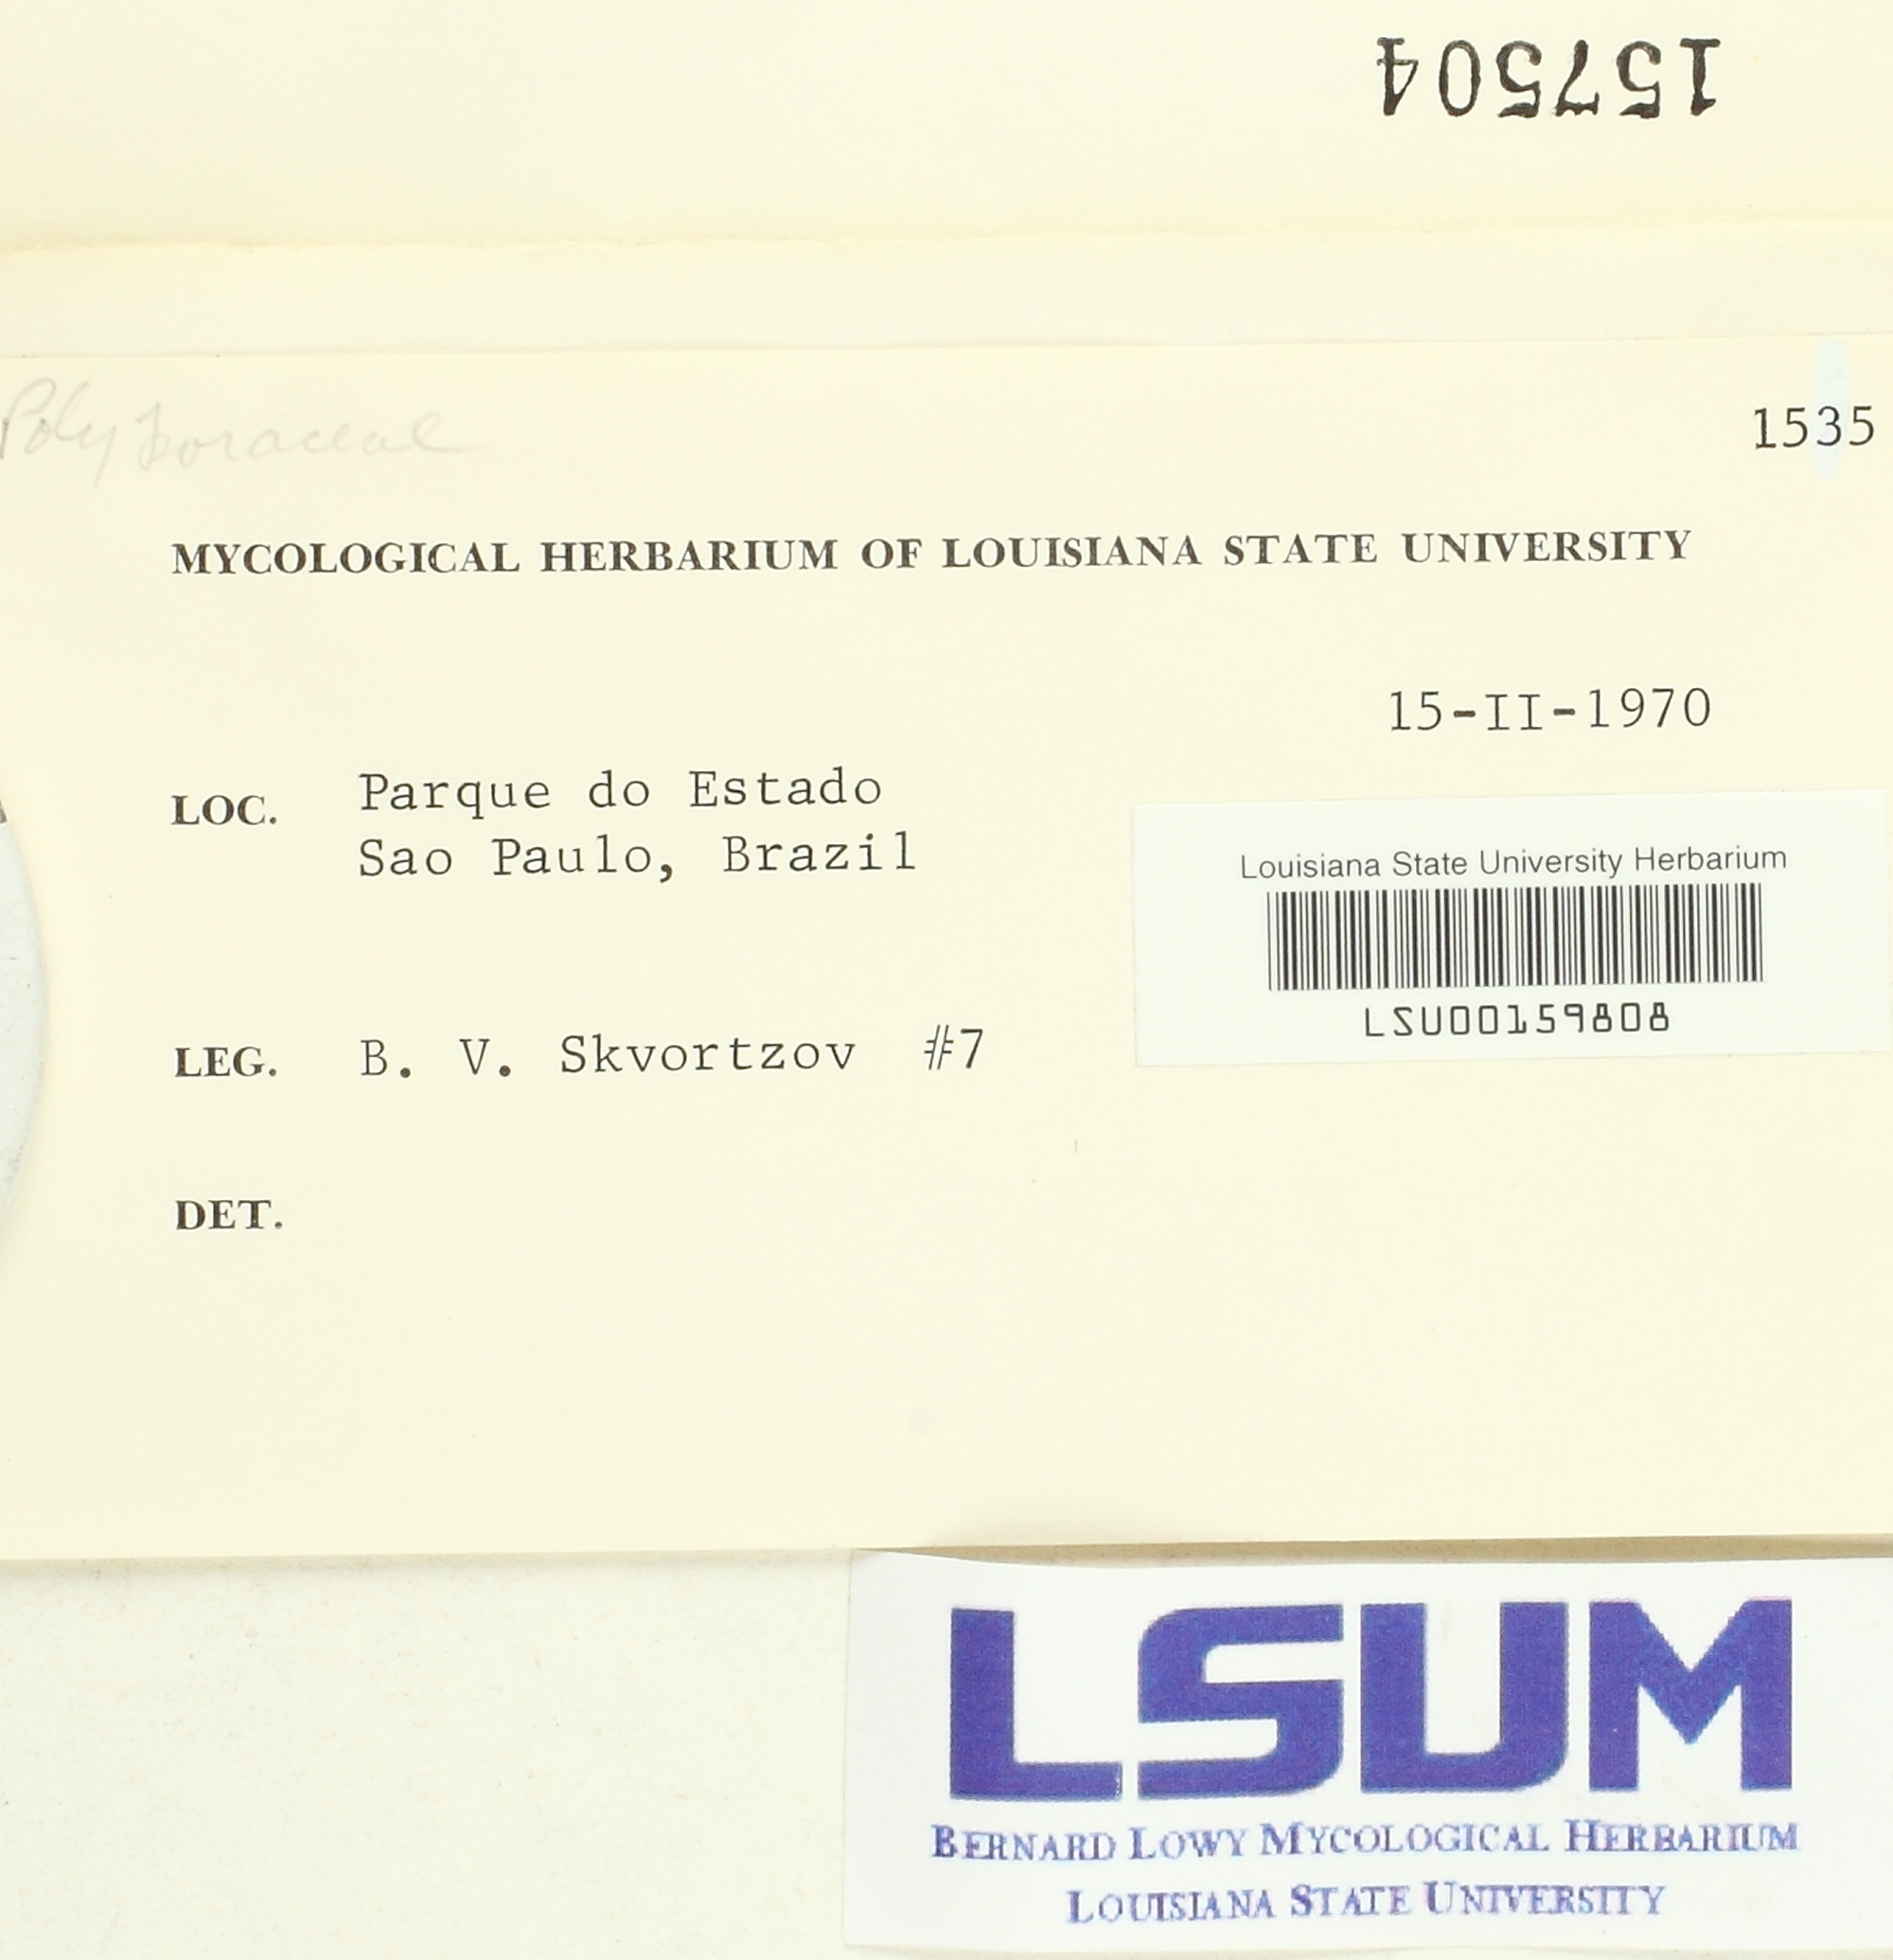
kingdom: Fungi
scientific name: Fungi
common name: Fungi
